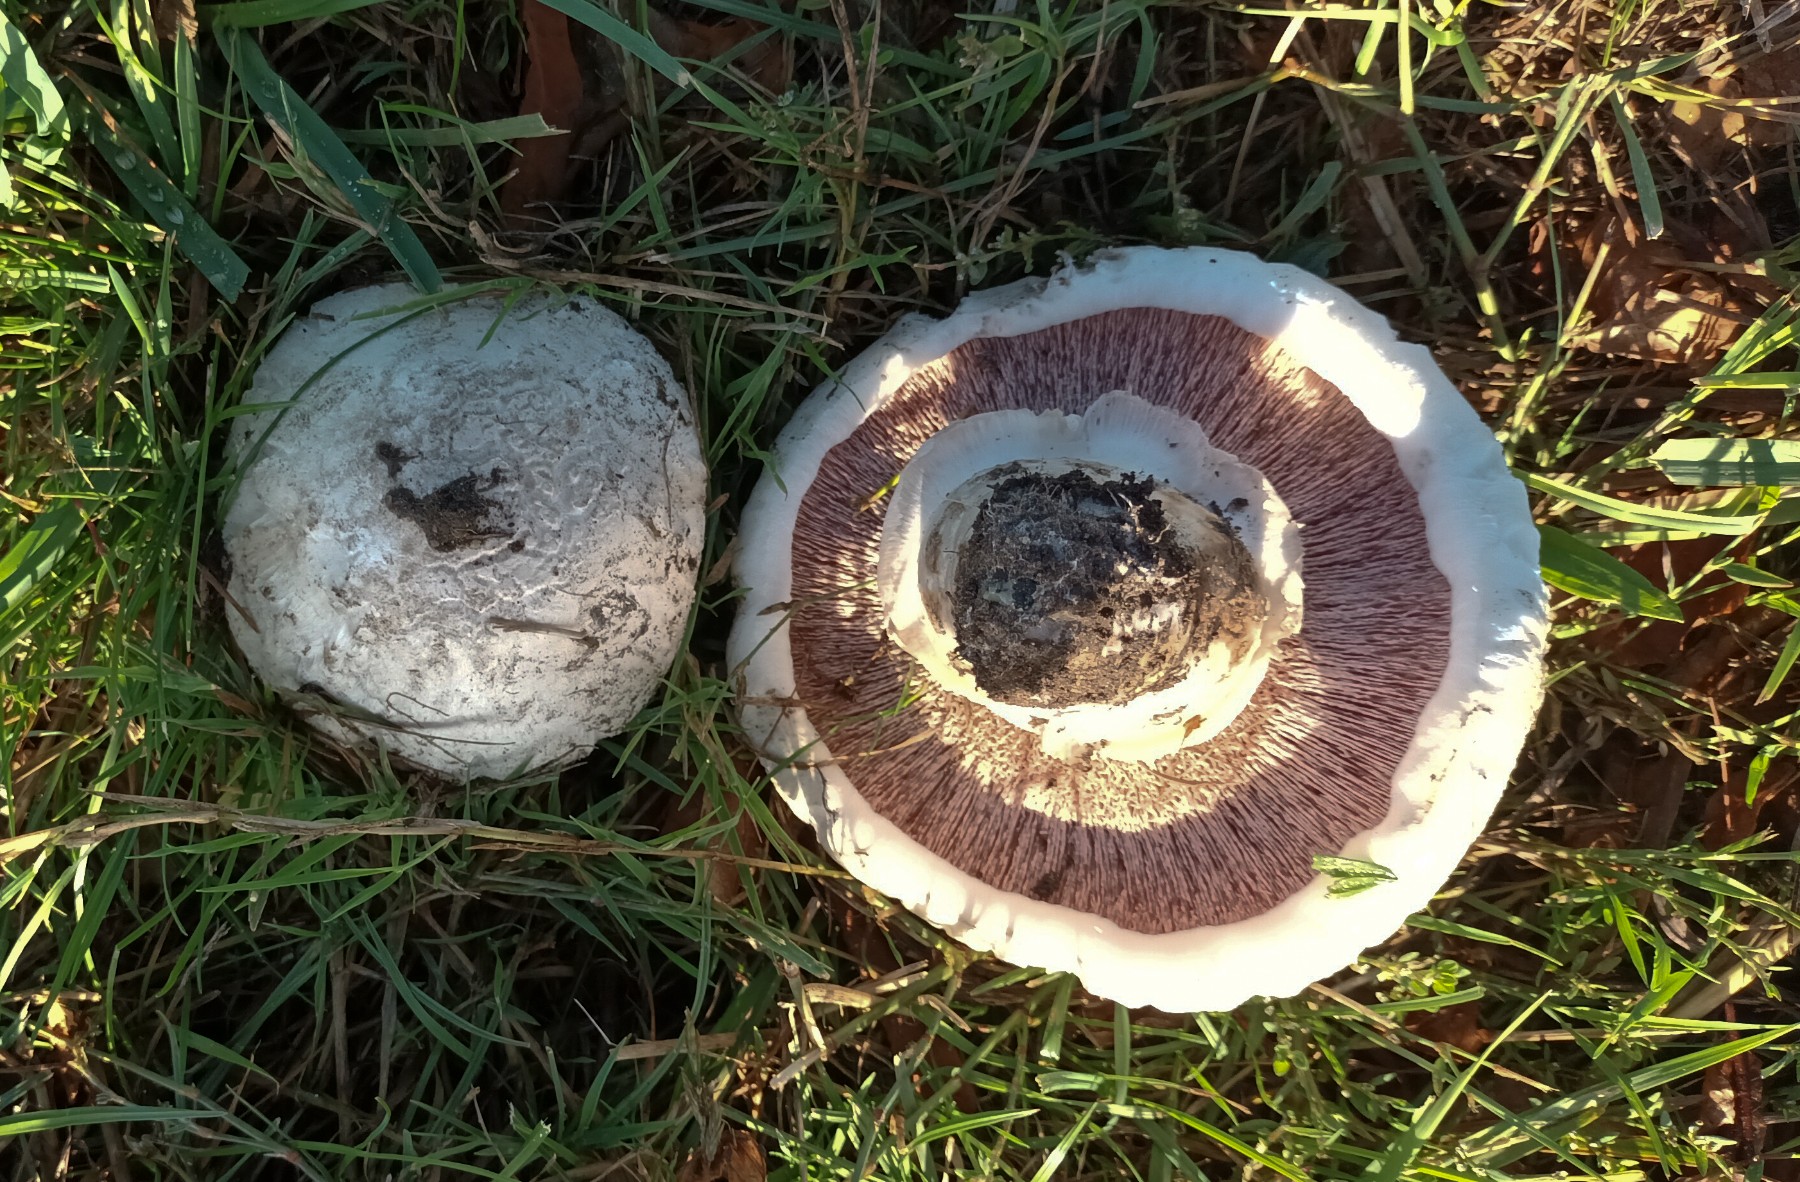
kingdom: Fungi
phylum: Basidiomycota
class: Agaricomycetes
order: Agaricales
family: Agaricaceae
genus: Agaricus
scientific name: Agaricus bitorquis
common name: vej-champignon
